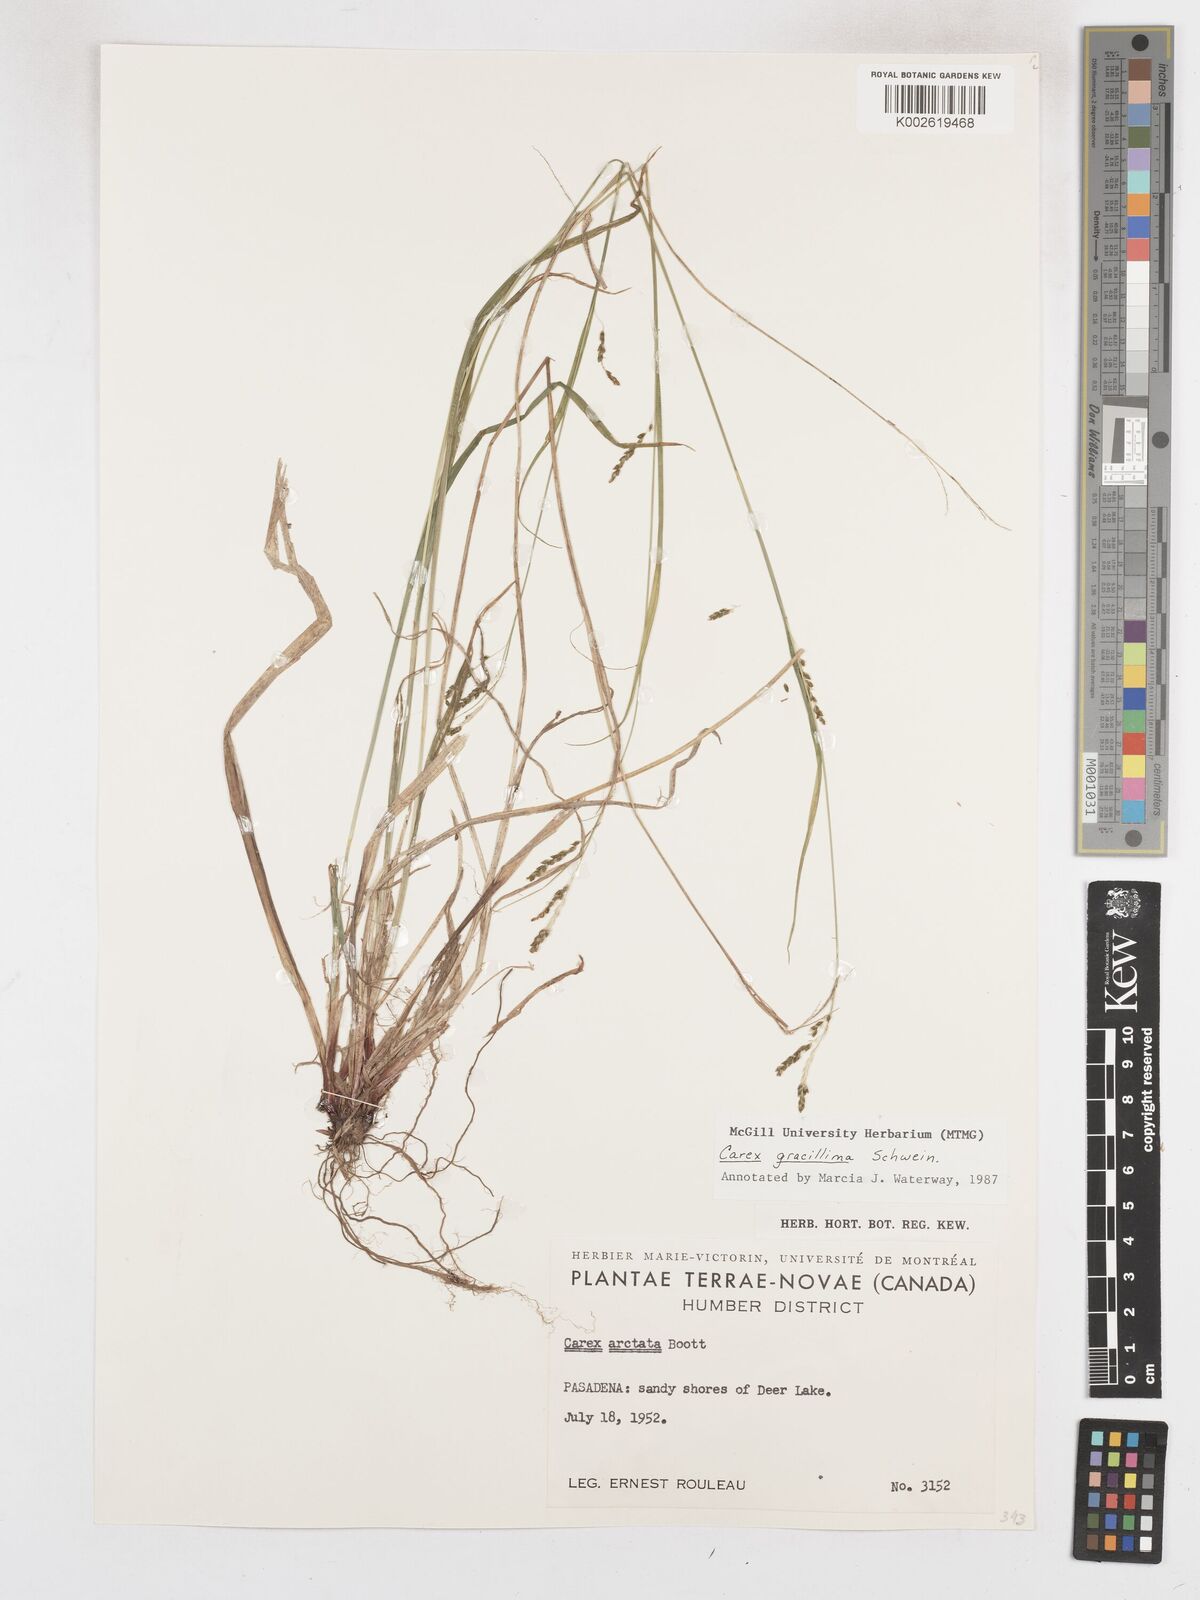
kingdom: Plantae
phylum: Tracheophyta
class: Liliopsida
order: Poales
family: Cyperaceae
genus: Carex
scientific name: Carex gracillima
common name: Graceful sedge
